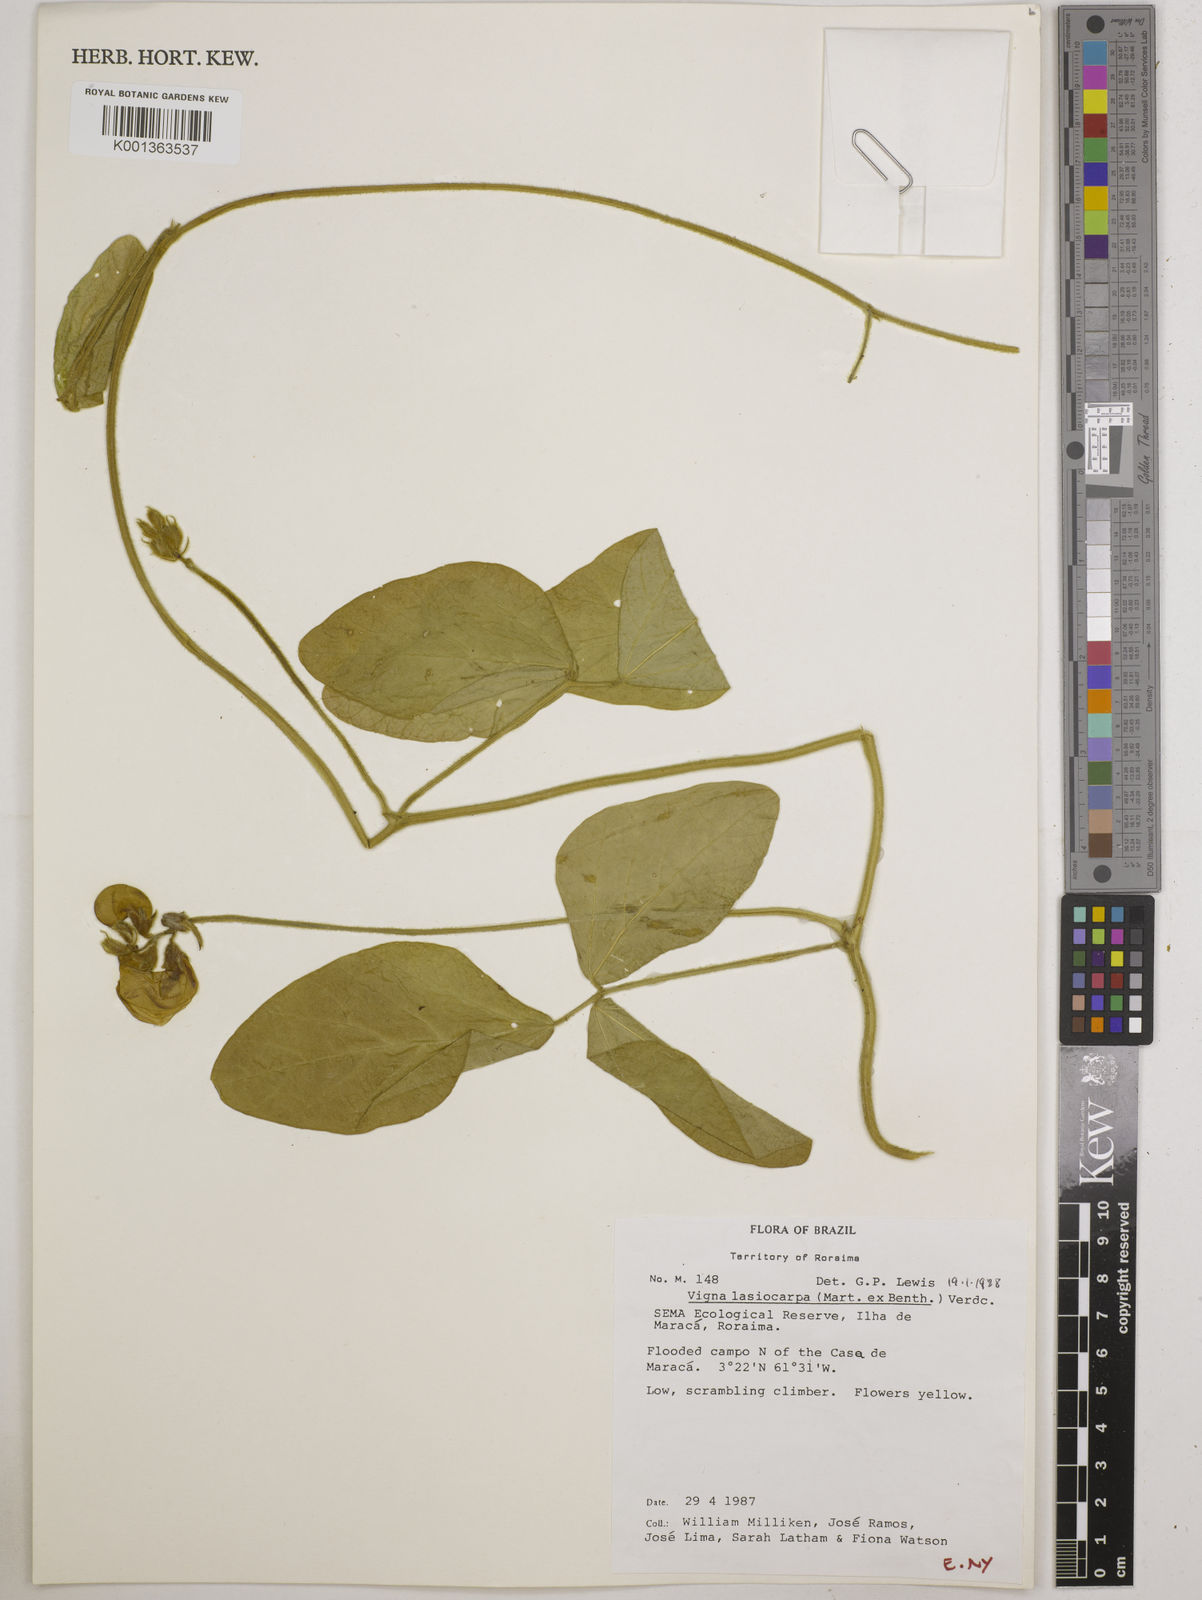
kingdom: Plantae
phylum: Tracheophyta
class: Magnoliopsida
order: Fabales
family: Fabaceae
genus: Vigna
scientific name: Vigna lasiocarpa
